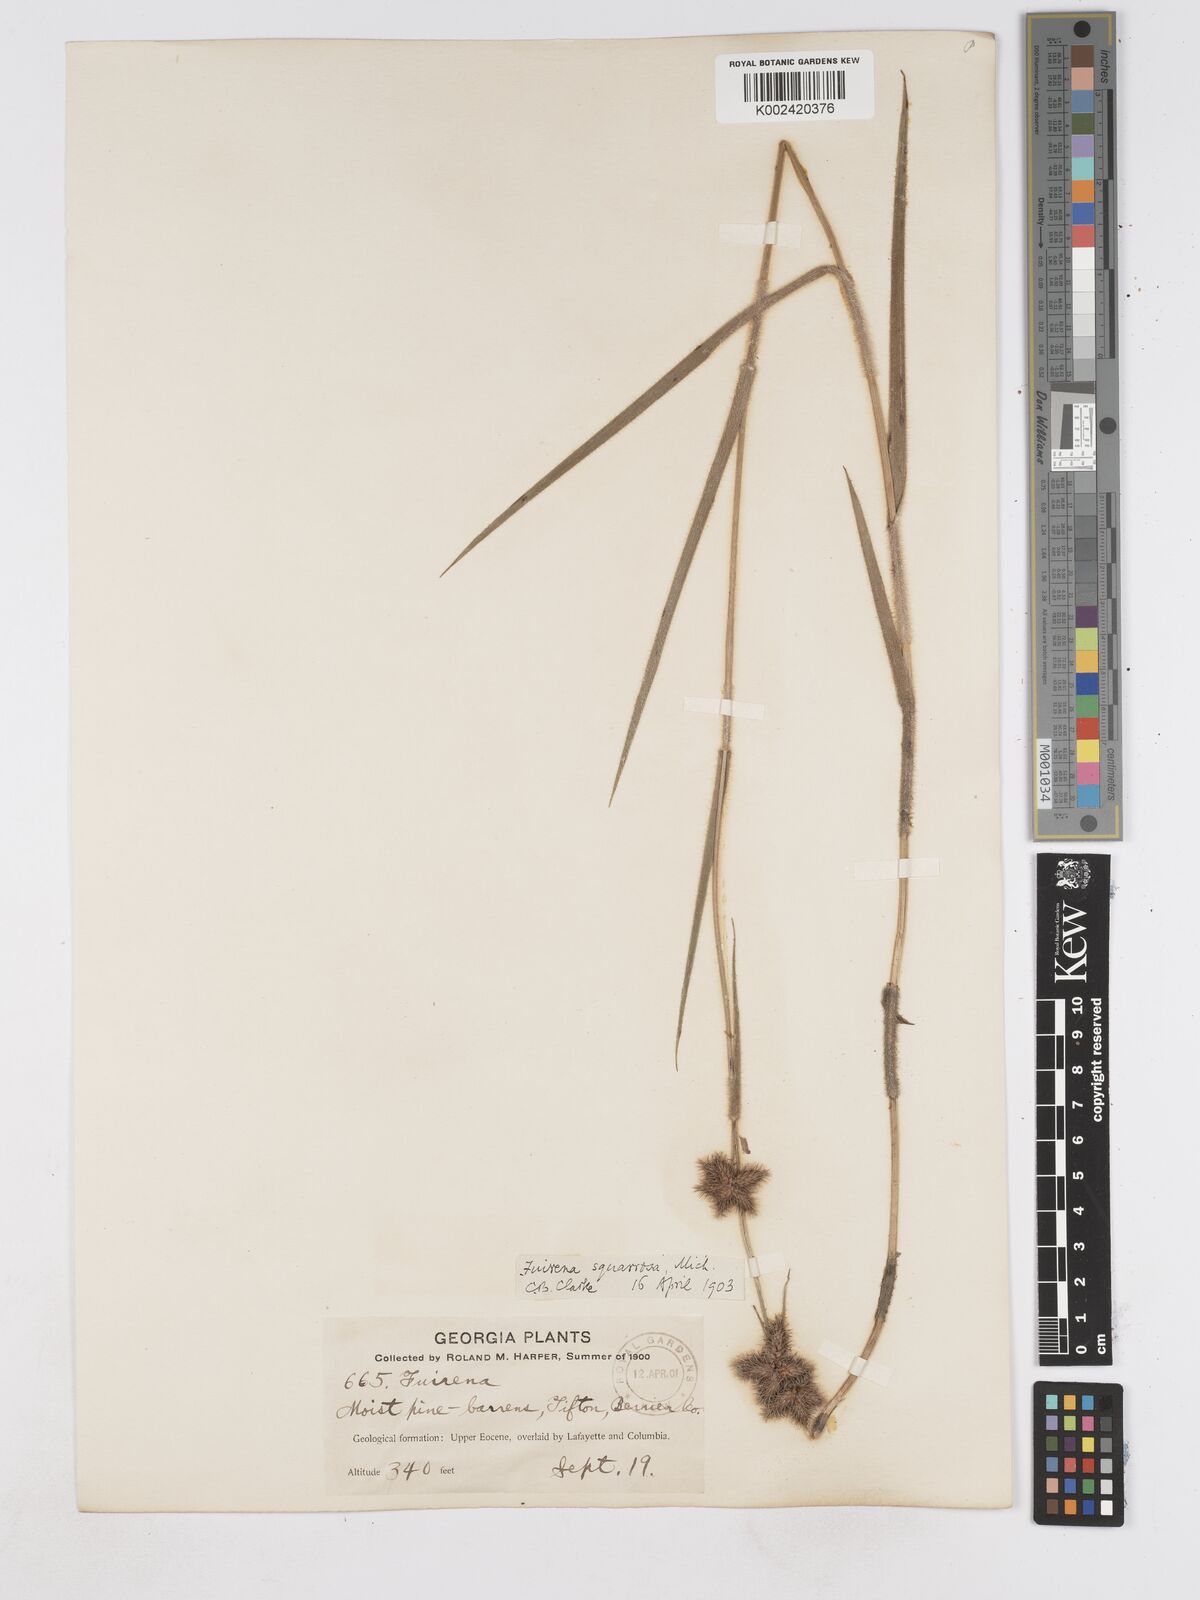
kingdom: Plantae
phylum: Tracheophyta
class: Liliopsida
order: Poales
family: Cyperaceae
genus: Fuirena
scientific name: Fuirena squarrosa
